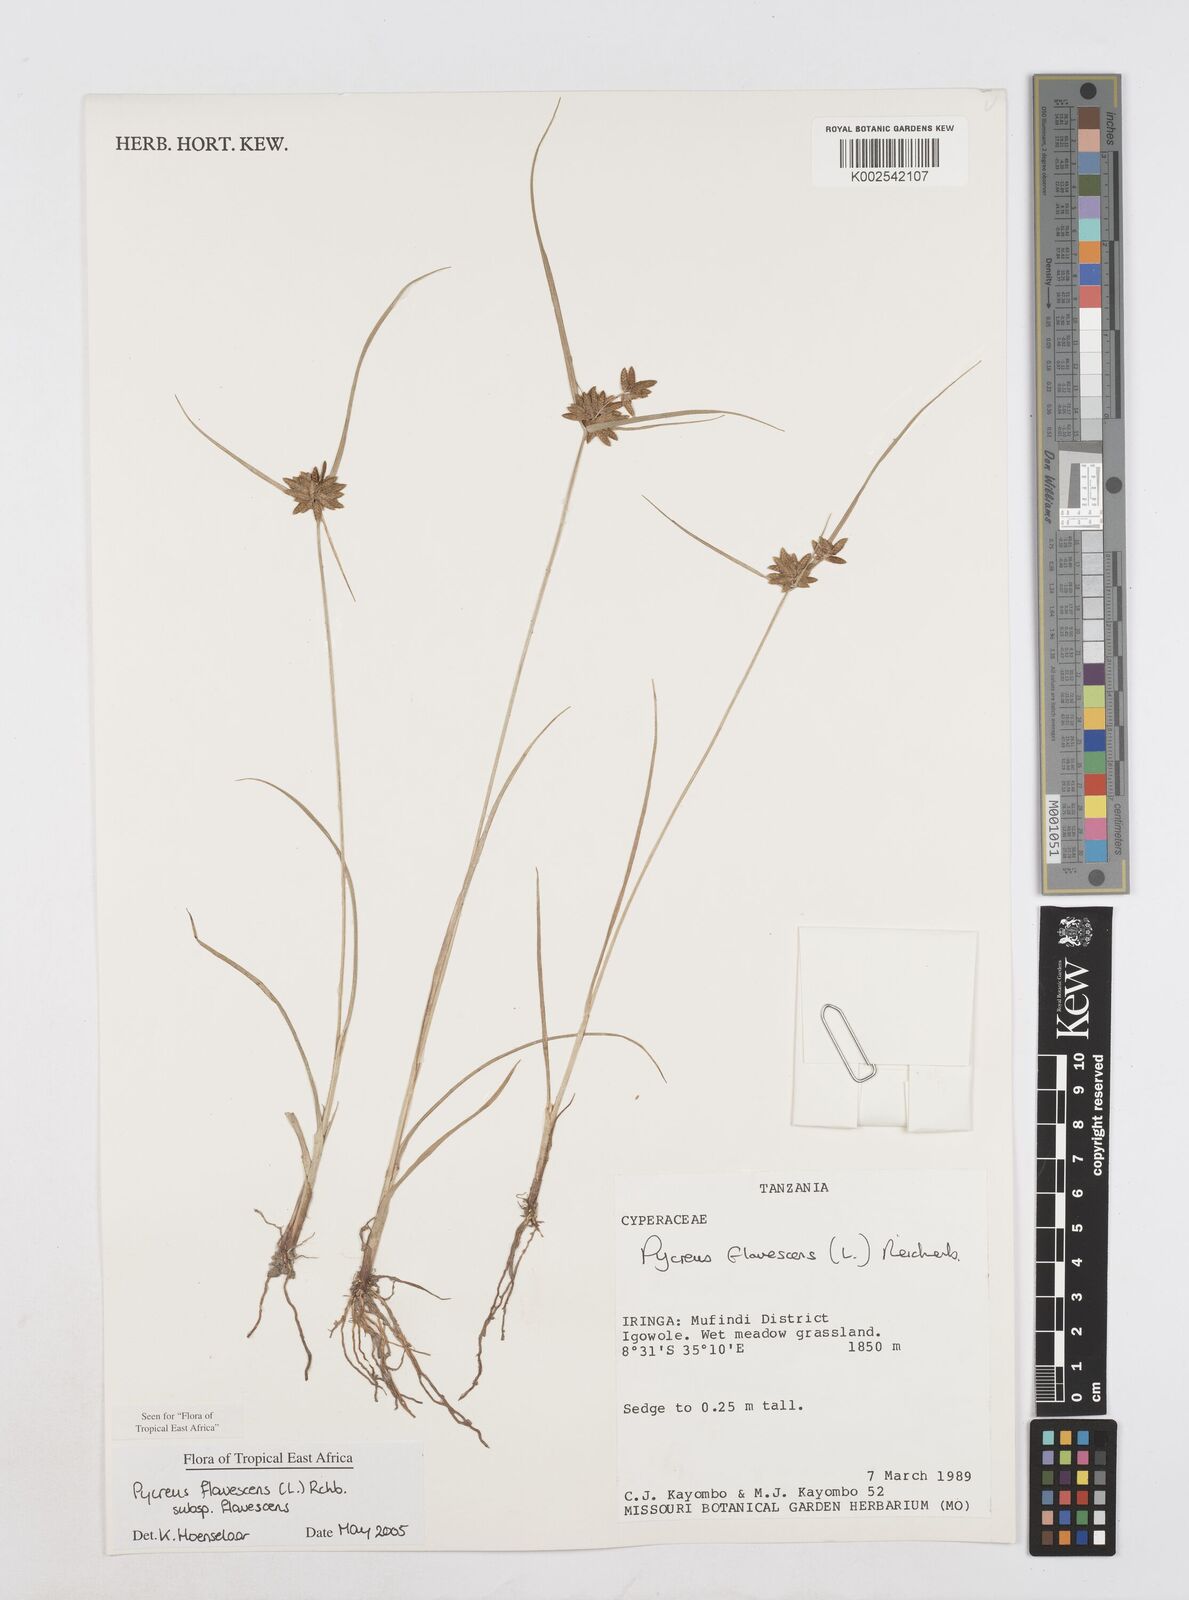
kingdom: Plantae
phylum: Tracheophyta
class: Liliopsida
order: Poales
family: Cyperaceae
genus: Cyperus
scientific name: Cyperus flavescens
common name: Yellow galingale
